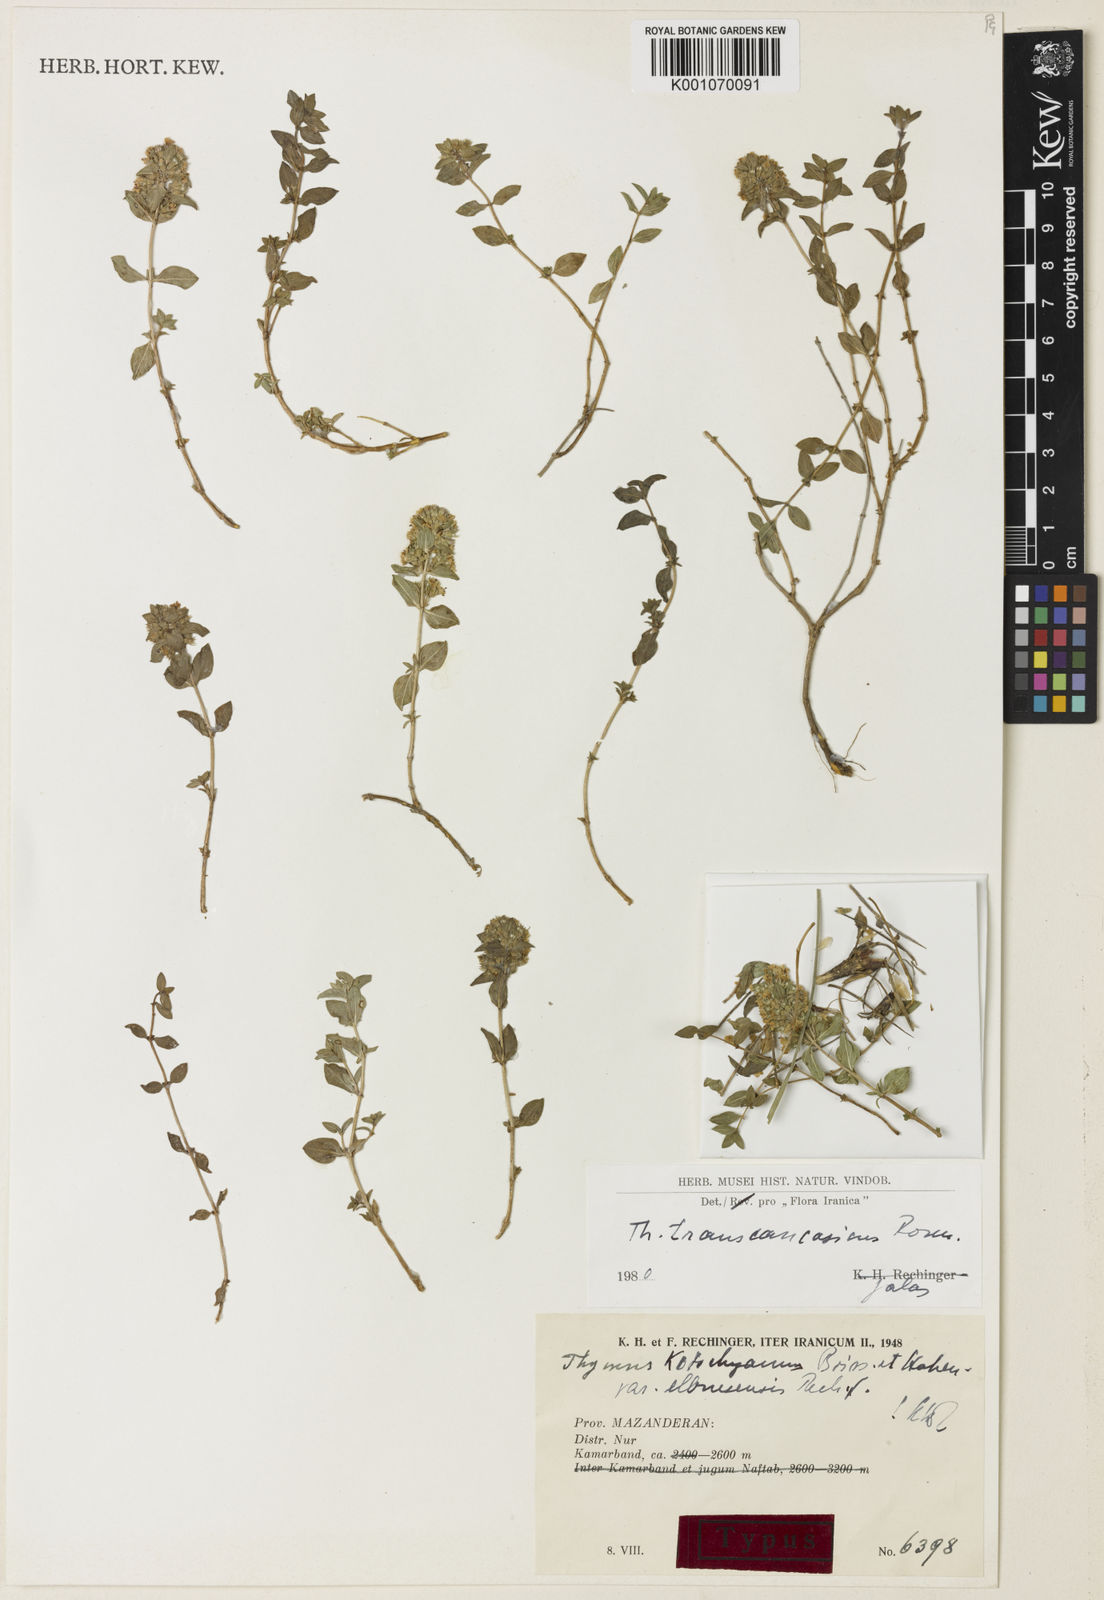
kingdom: Plantae
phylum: Tracheophyta
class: Magnoliopsida
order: Lamiales
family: Lamiaceae
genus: Thymus
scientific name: Thymus transcaucasicus
